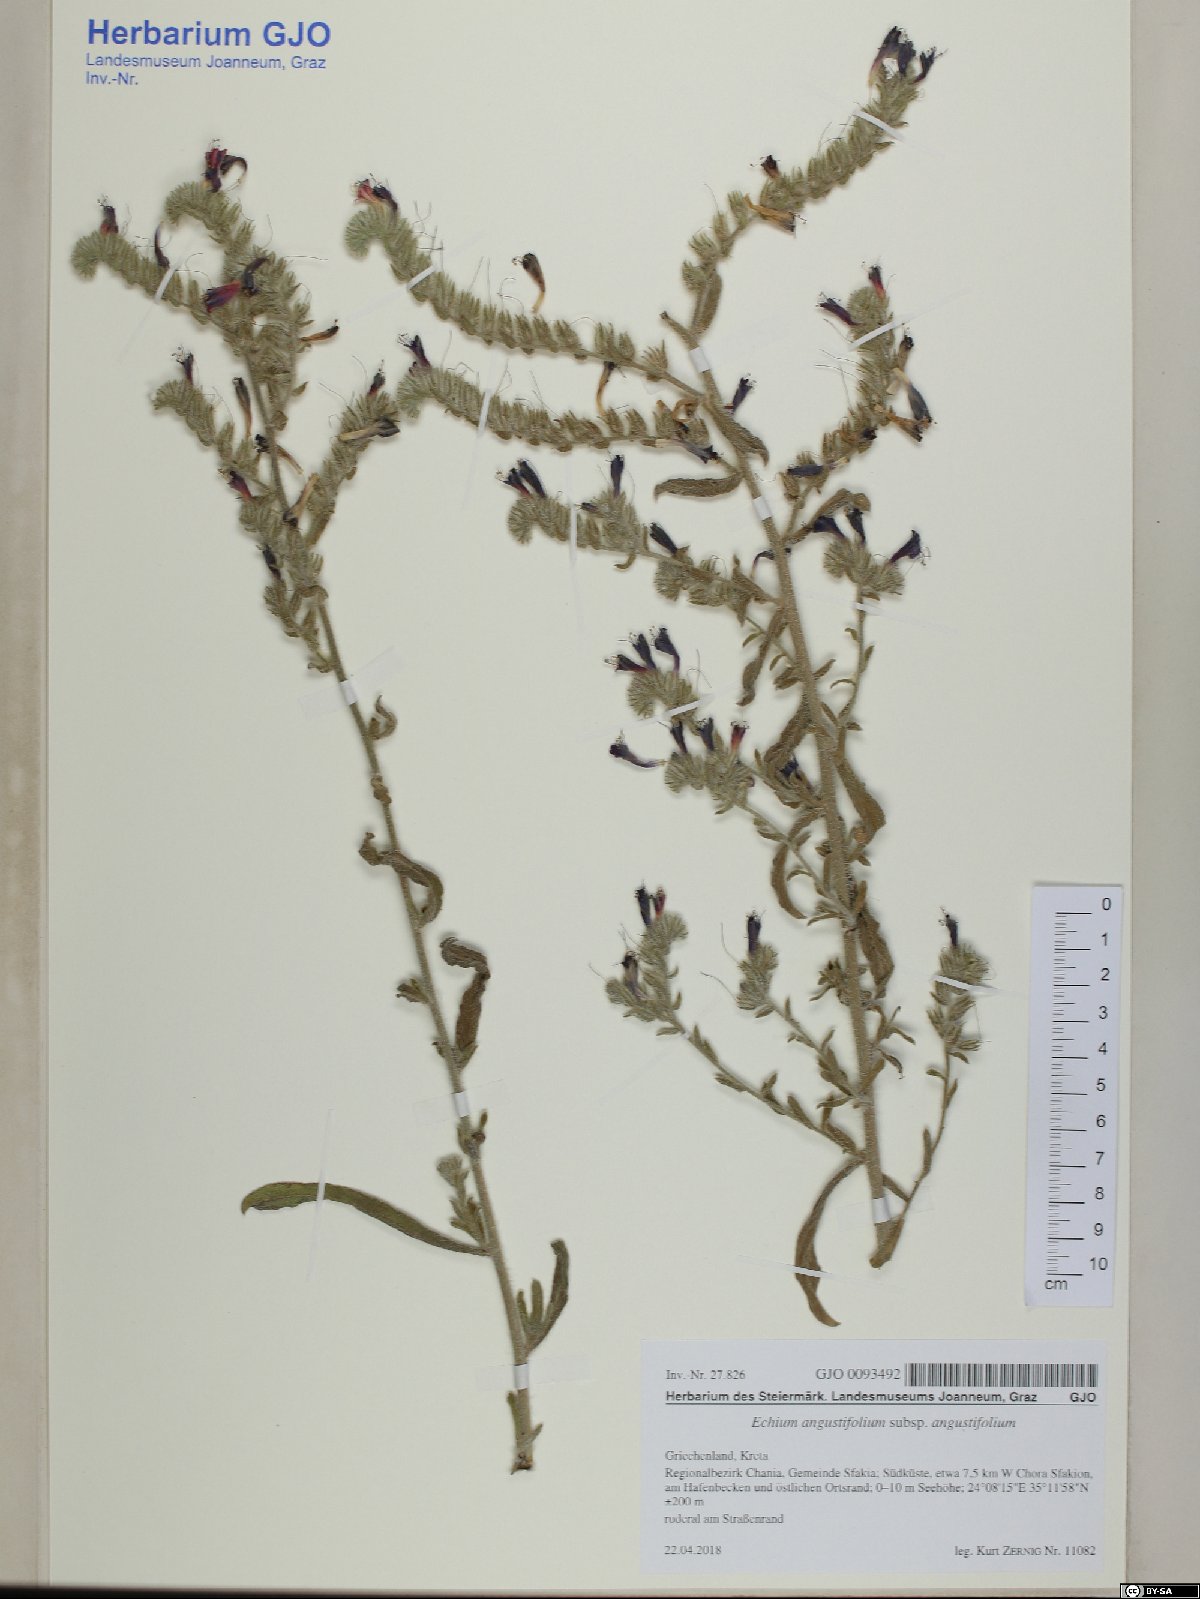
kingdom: Plantae
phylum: Tracheophyta
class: Magnoliopsida
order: Boraginales
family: Boraginaceae
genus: Echium
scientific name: Echium angustifolium
